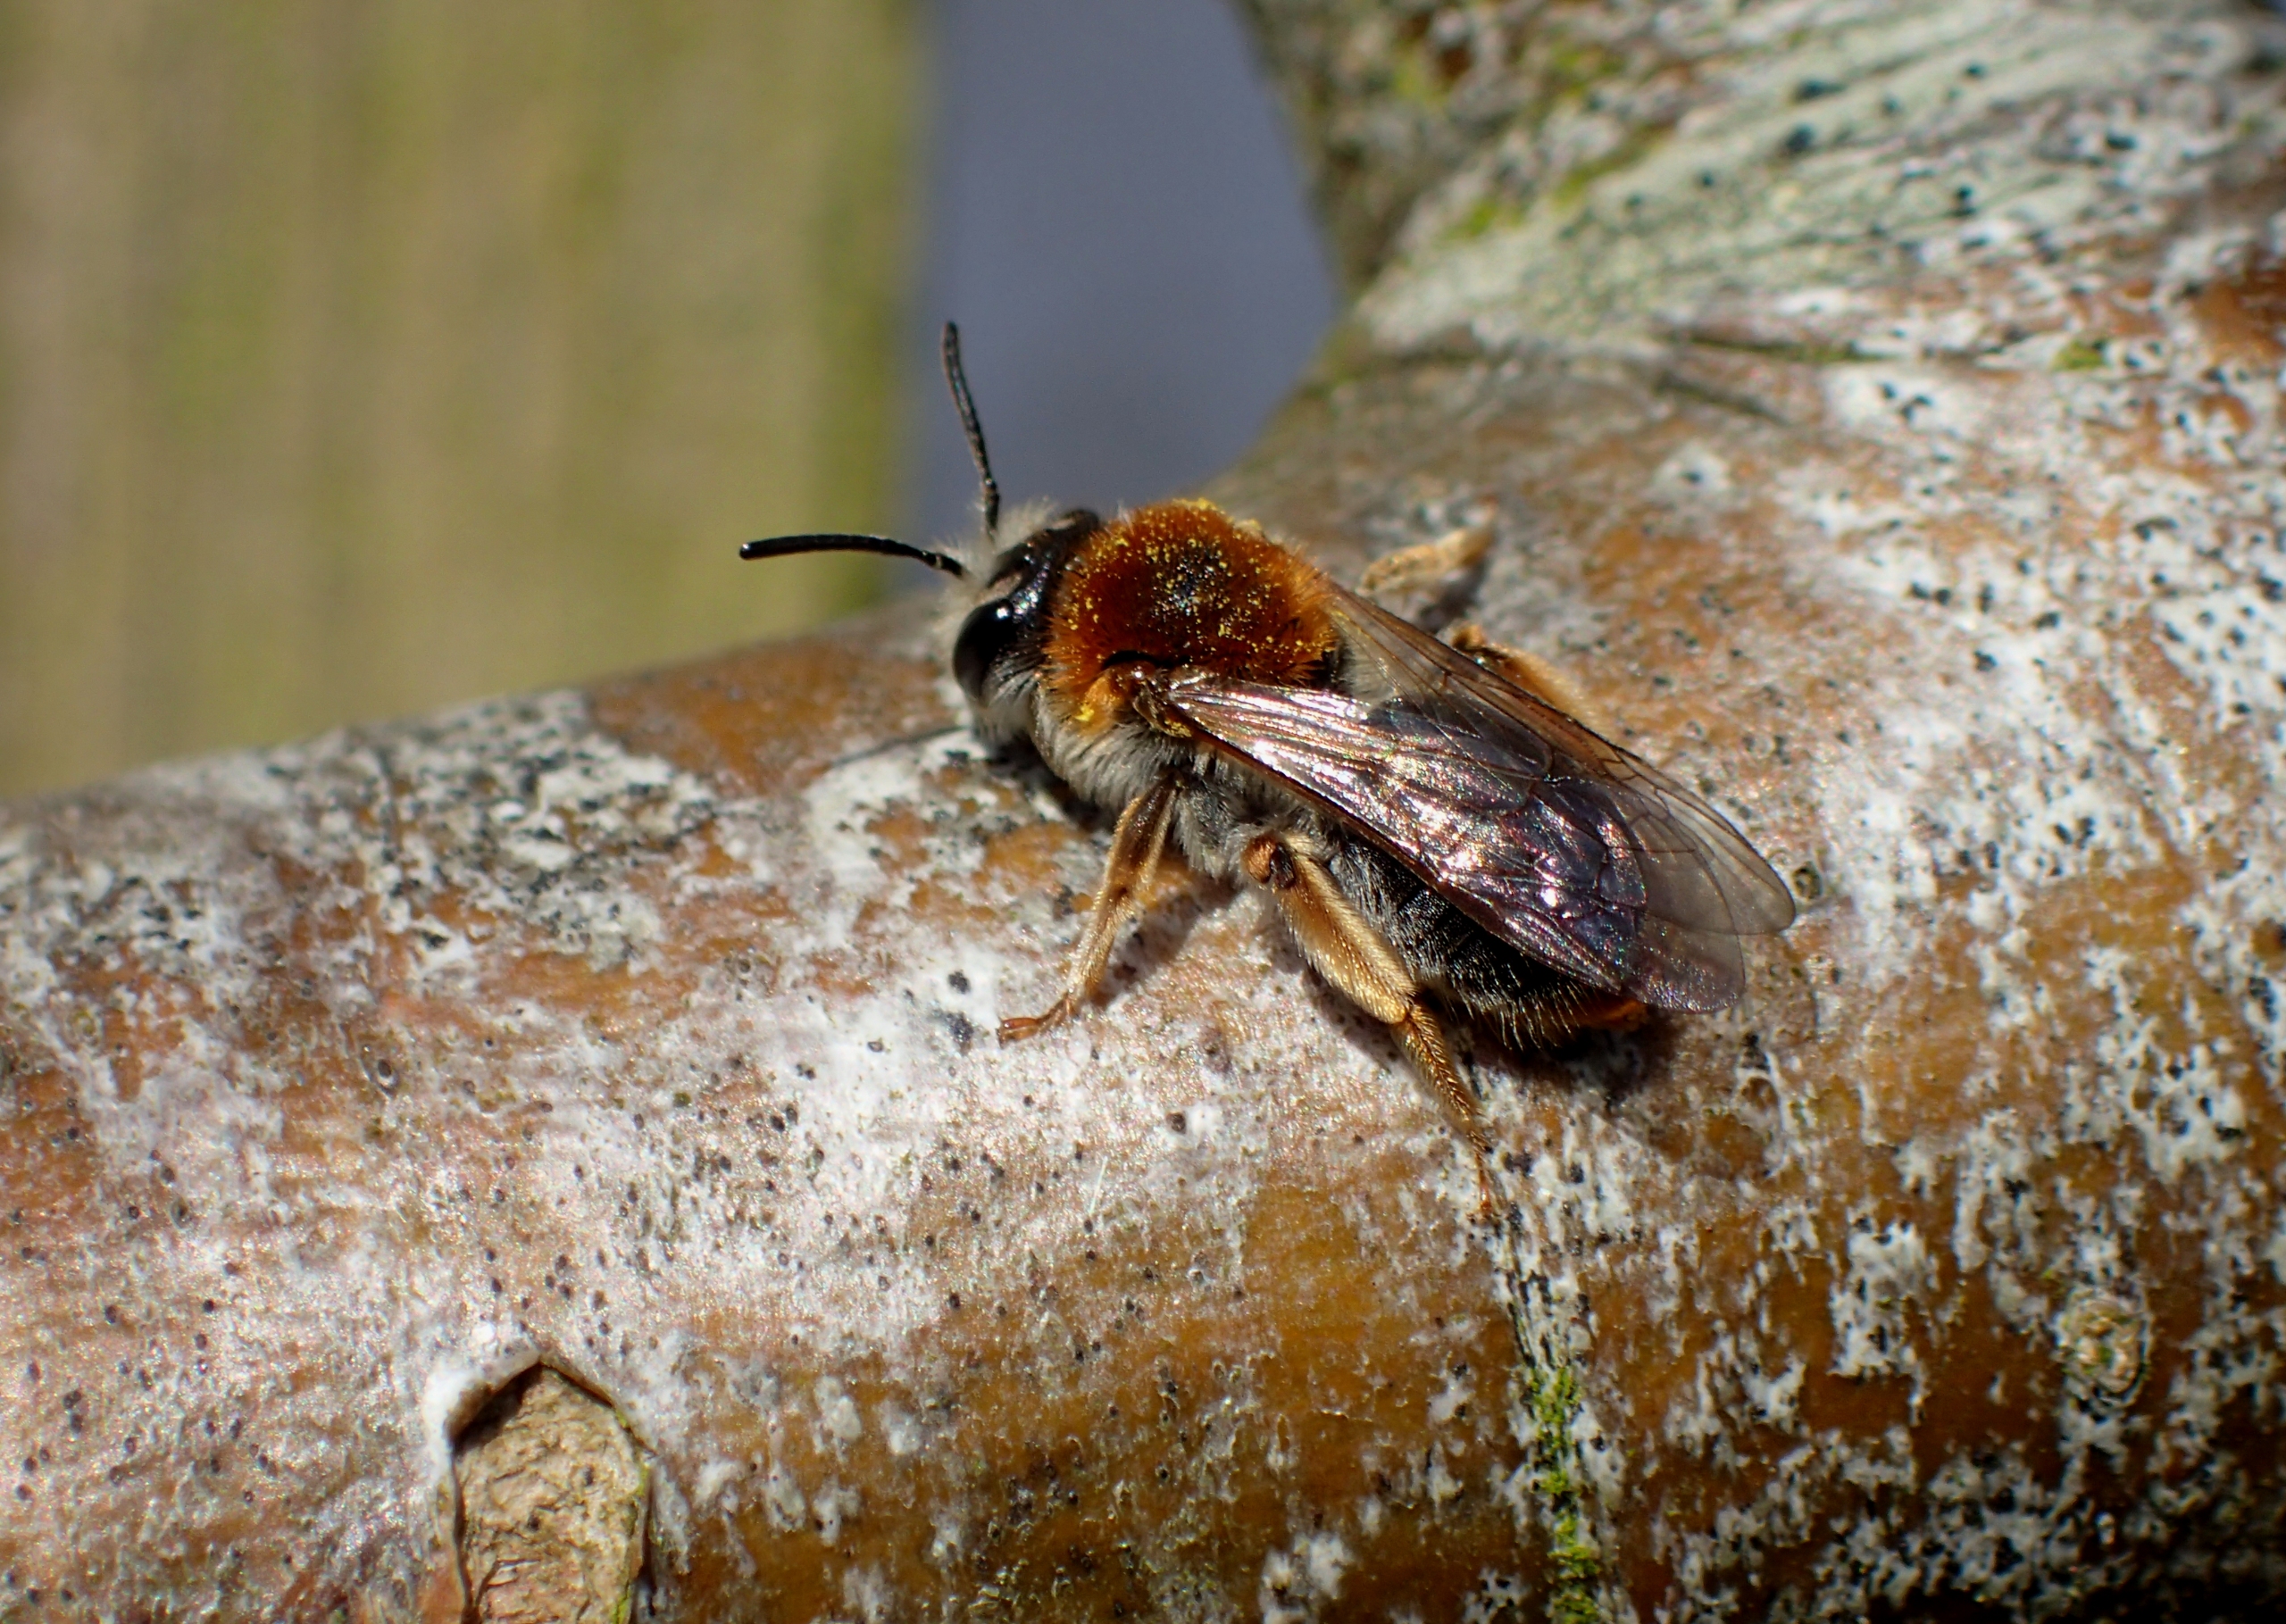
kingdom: Animalia
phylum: Arthropoda
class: Insecta
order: Hymenoptera
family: Andrenidae
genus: Andrena
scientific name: Andrena haemorrhoa
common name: Havejordbi
